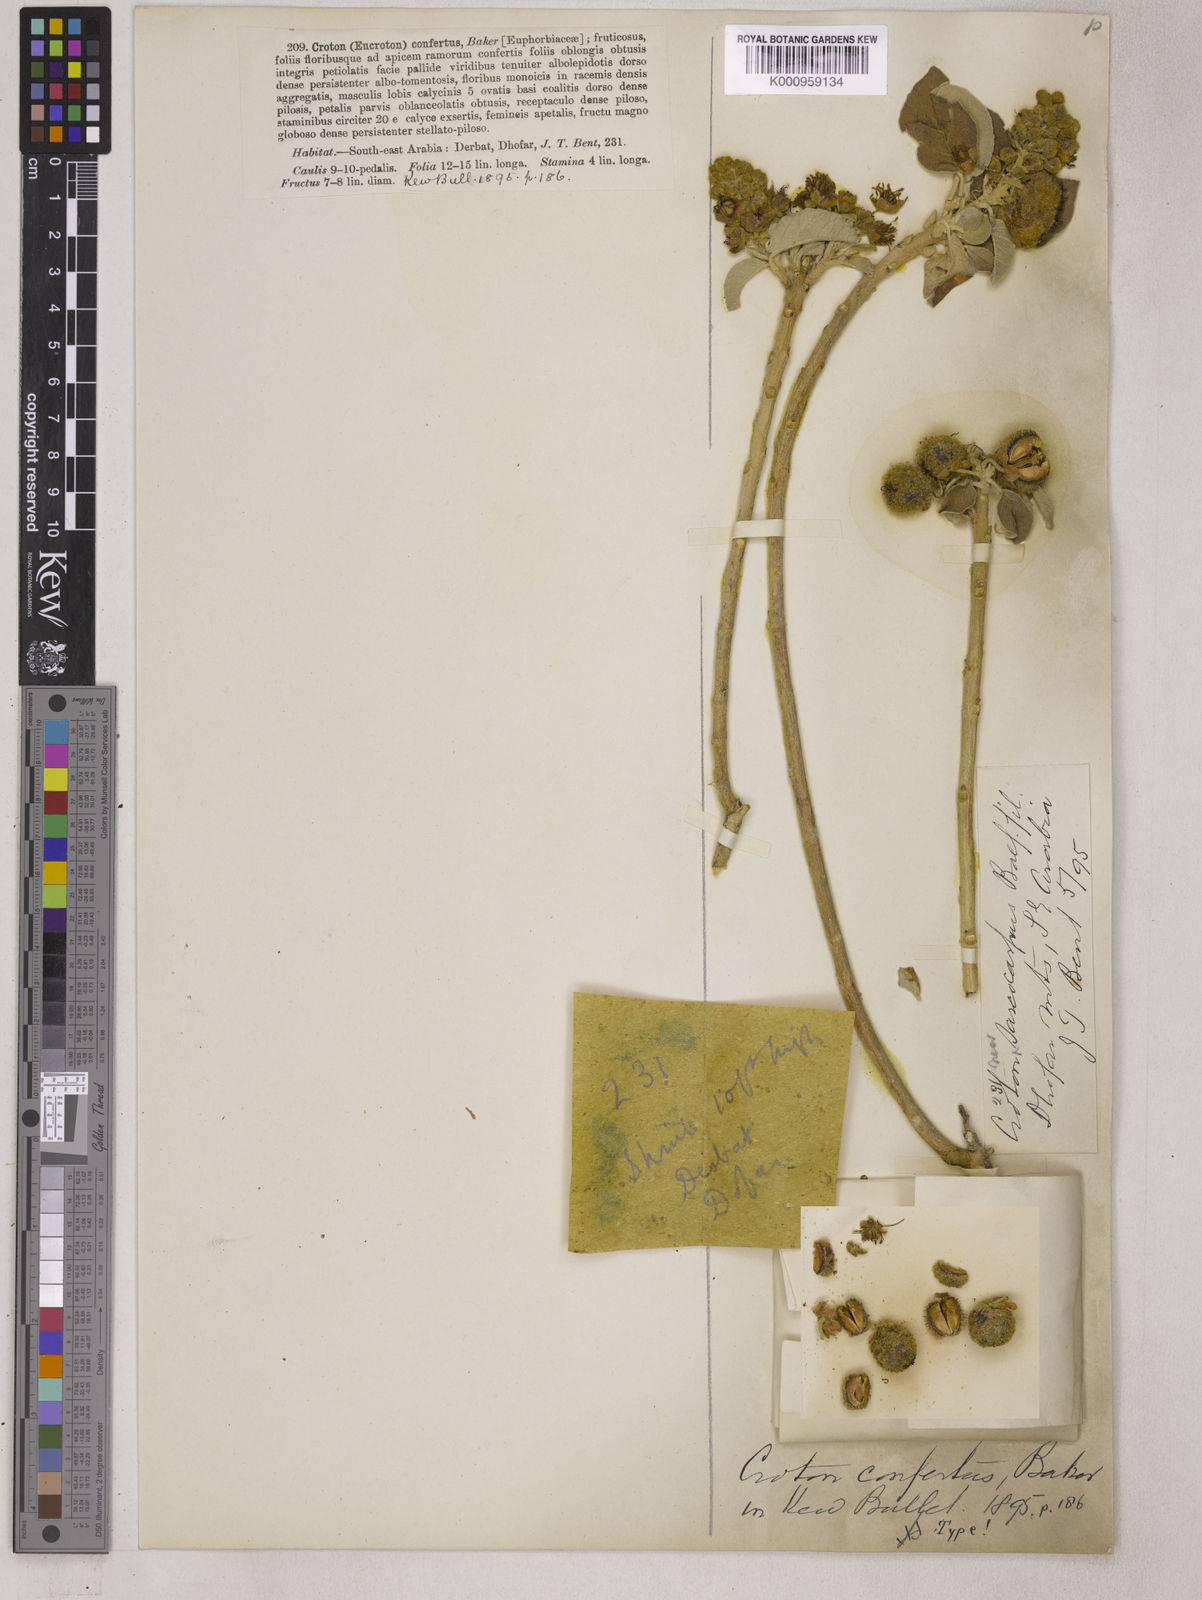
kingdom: Plantae
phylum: Tracheophyta
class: Magnoliopsida
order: Malpighiales
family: Euphorbiaceae
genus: Croton
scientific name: Croton confertus
